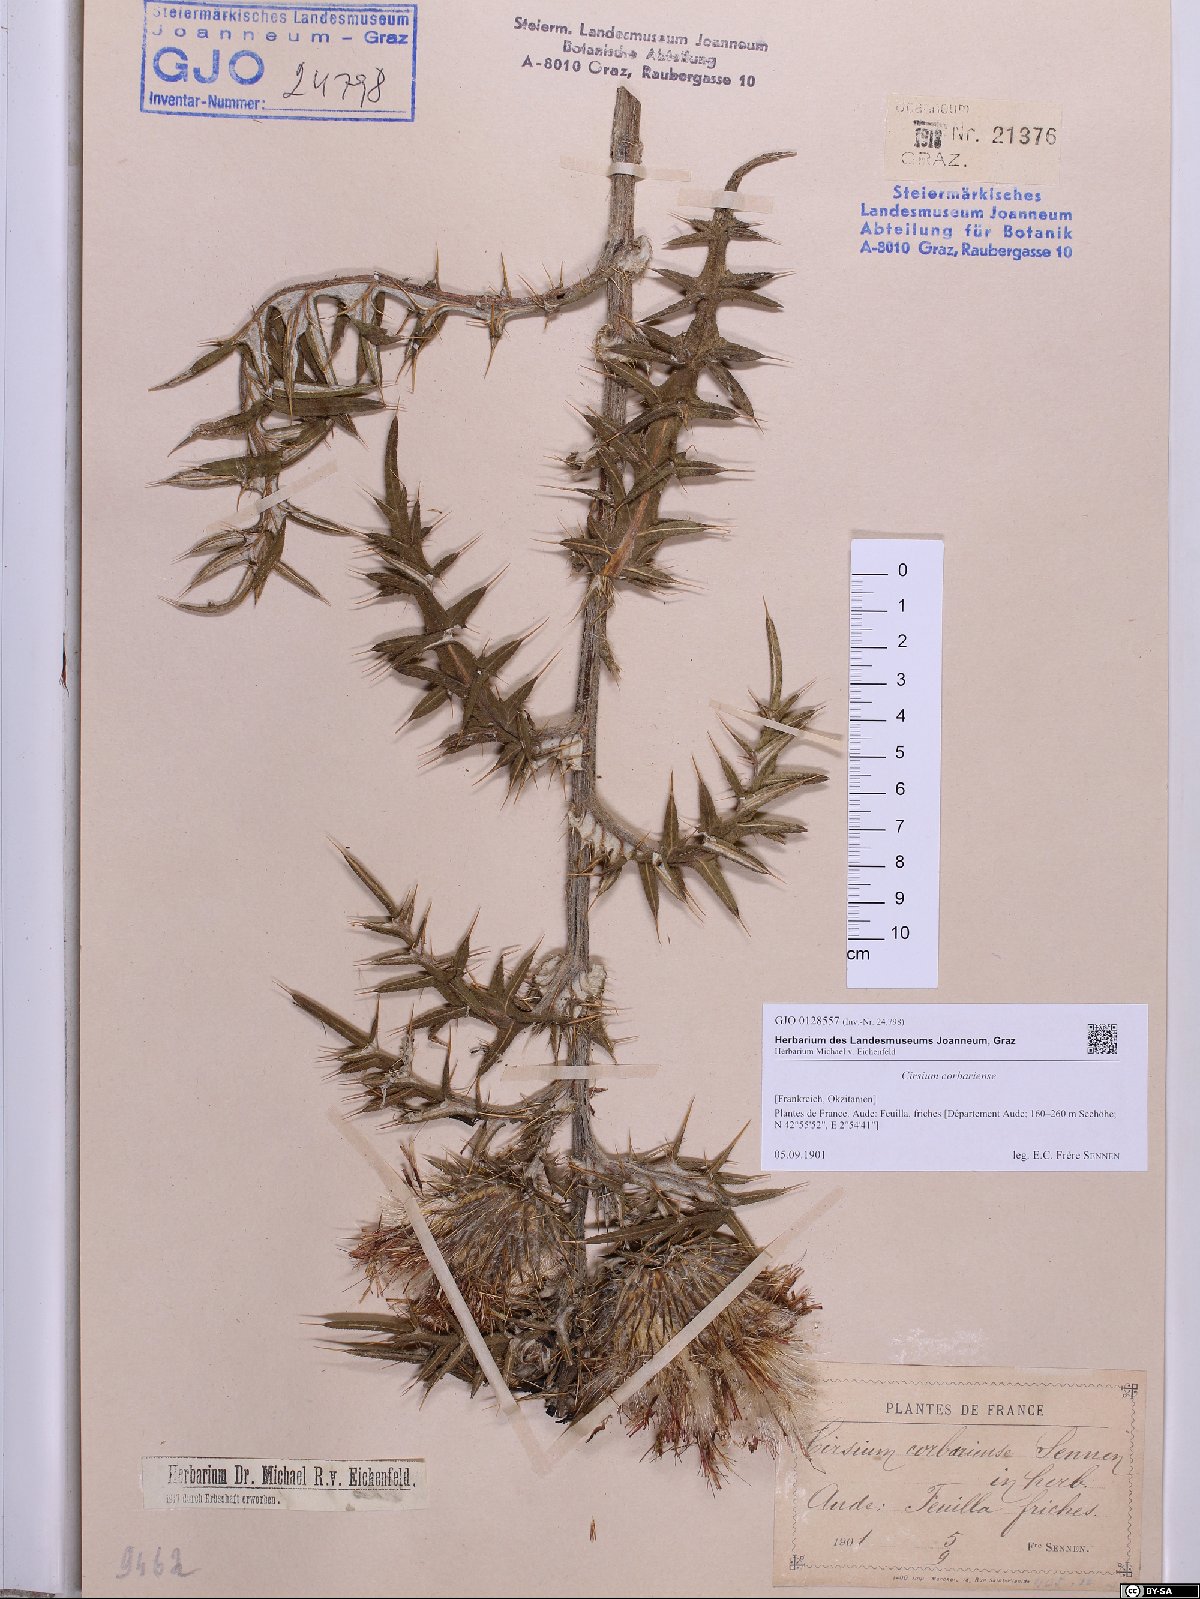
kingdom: Plantae
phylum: Tracheophyta
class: Magnoliopsida
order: Asterales
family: Asteraceae
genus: Lophiolepis
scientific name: Lophiolepis eriophora
